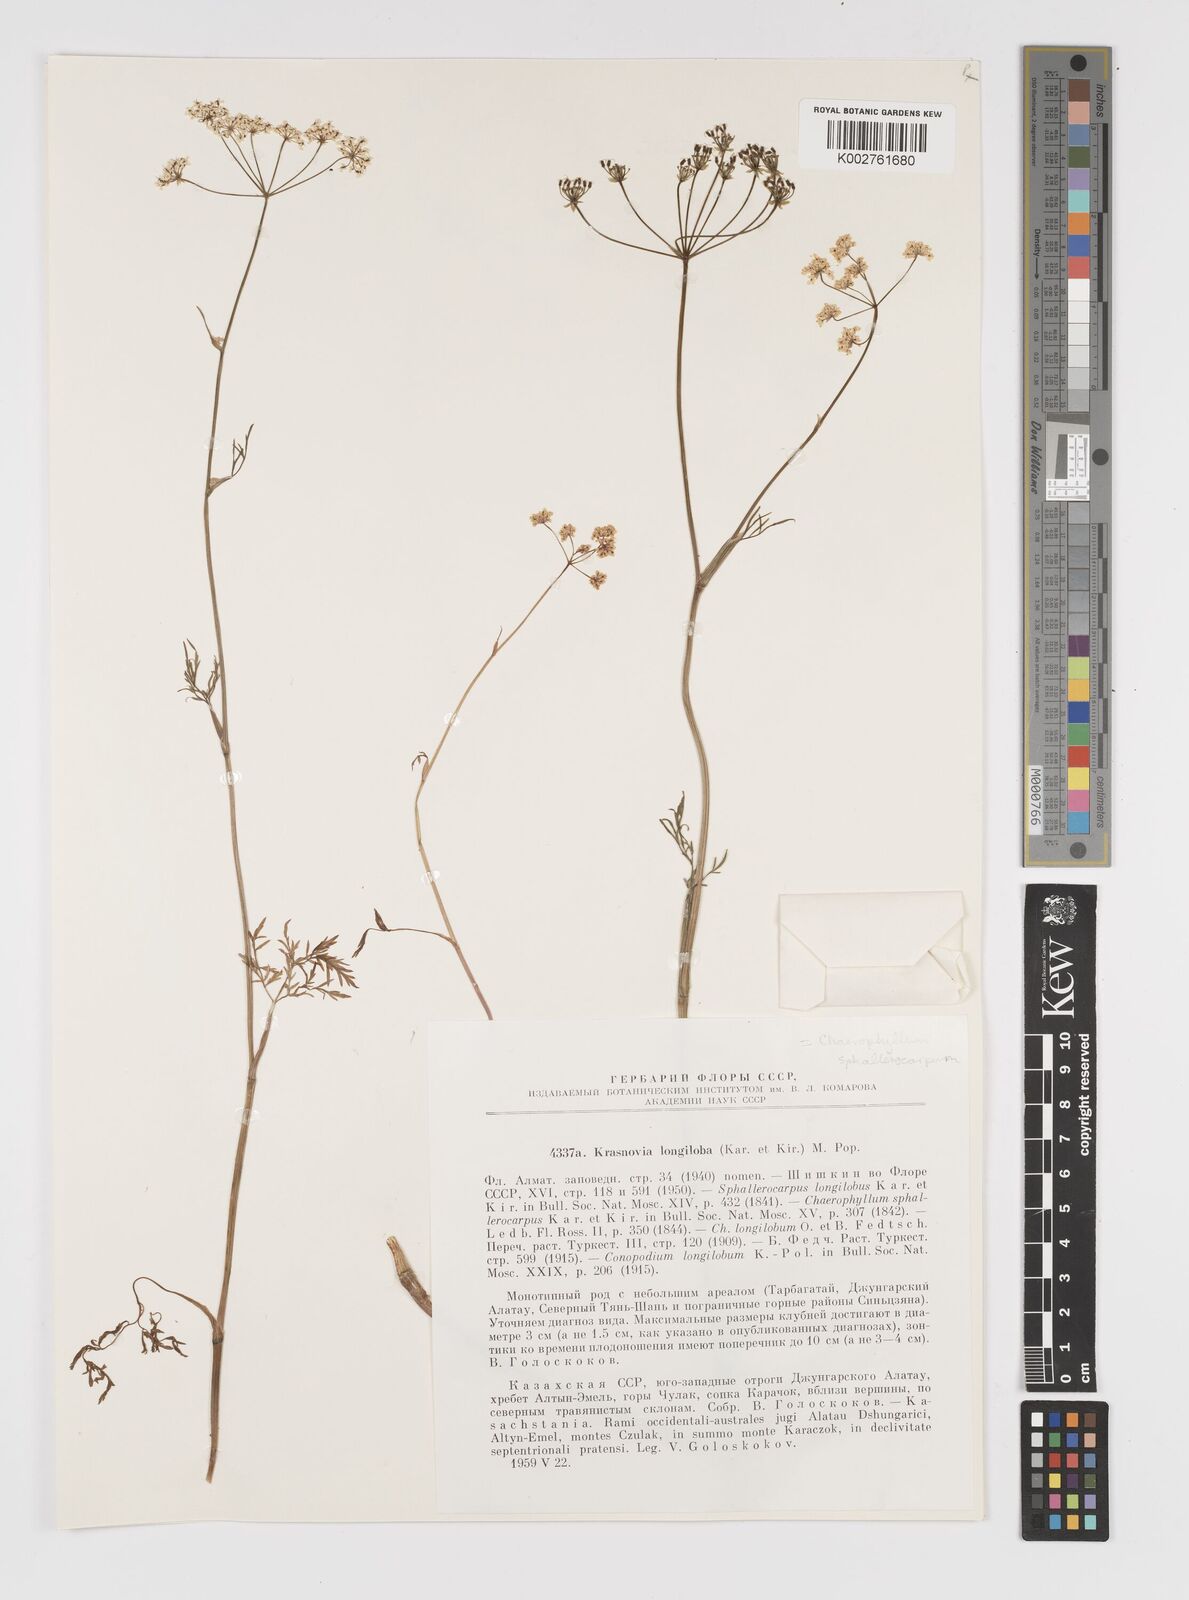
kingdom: Plantae
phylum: Tracheophyta
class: Magnoliopsida
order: Apiales
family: Apiaceae
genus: Kozlovia
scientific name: Kozlovia longiloba
